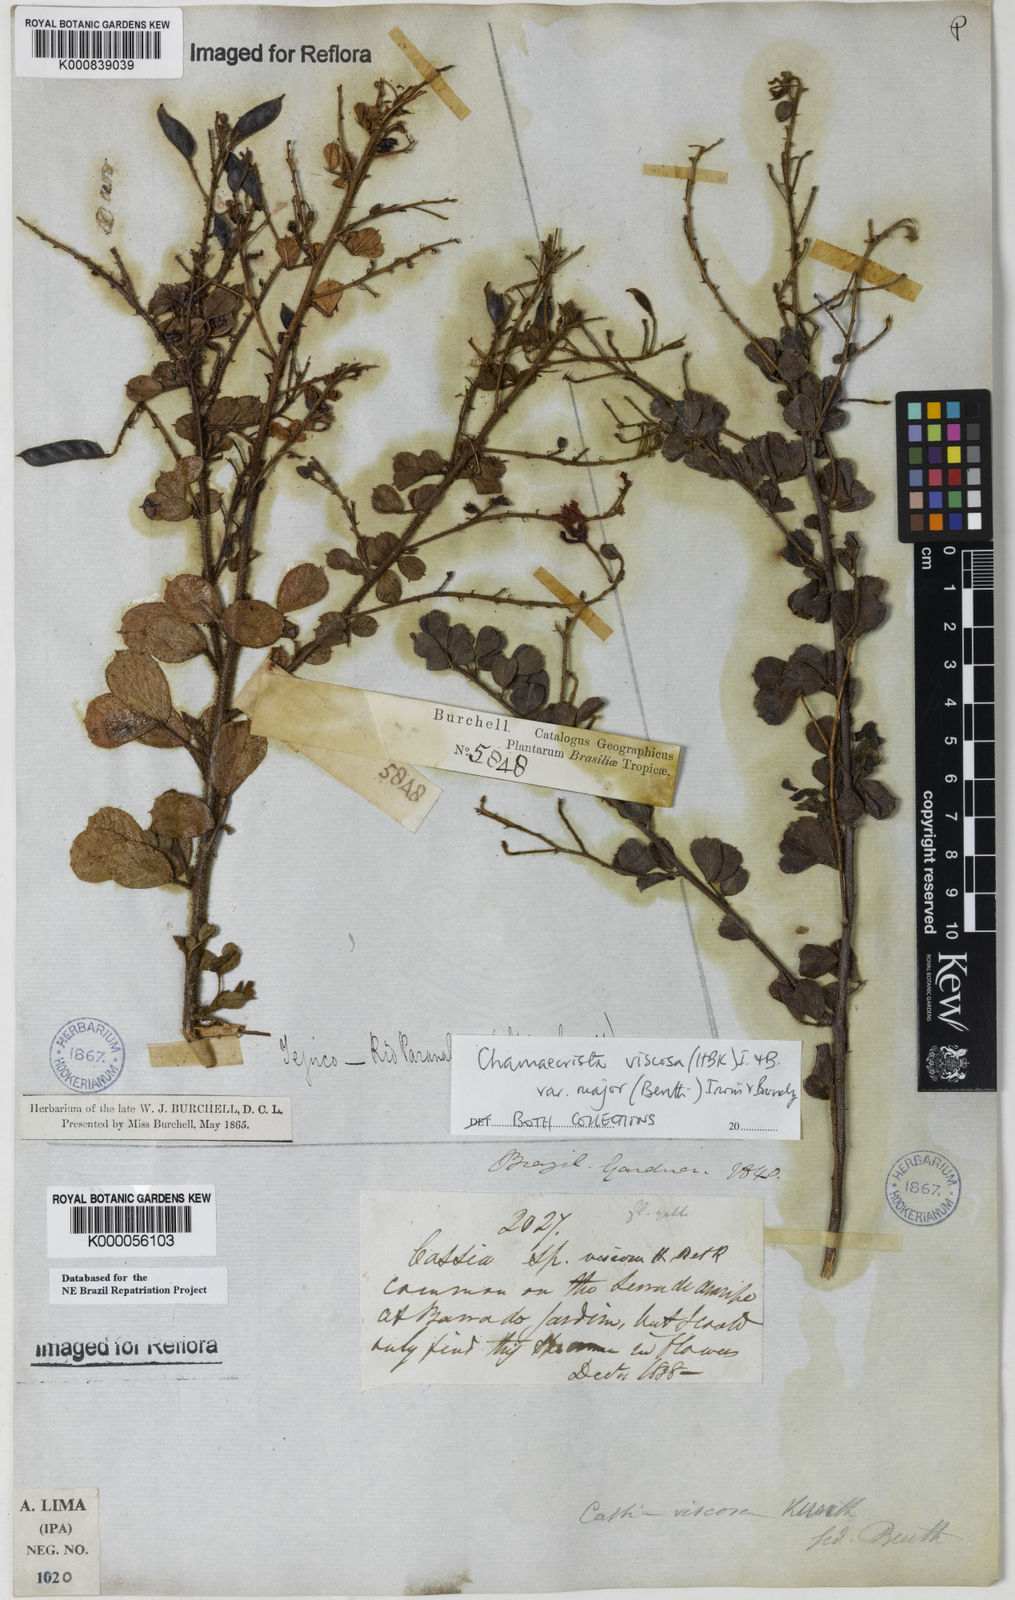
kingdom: Plantae
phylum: Tracheophyta
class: Magnoliopsida
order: Fabales
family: Fabaceae
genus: Chamaecrista
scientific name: Chamaecrista viscosa
